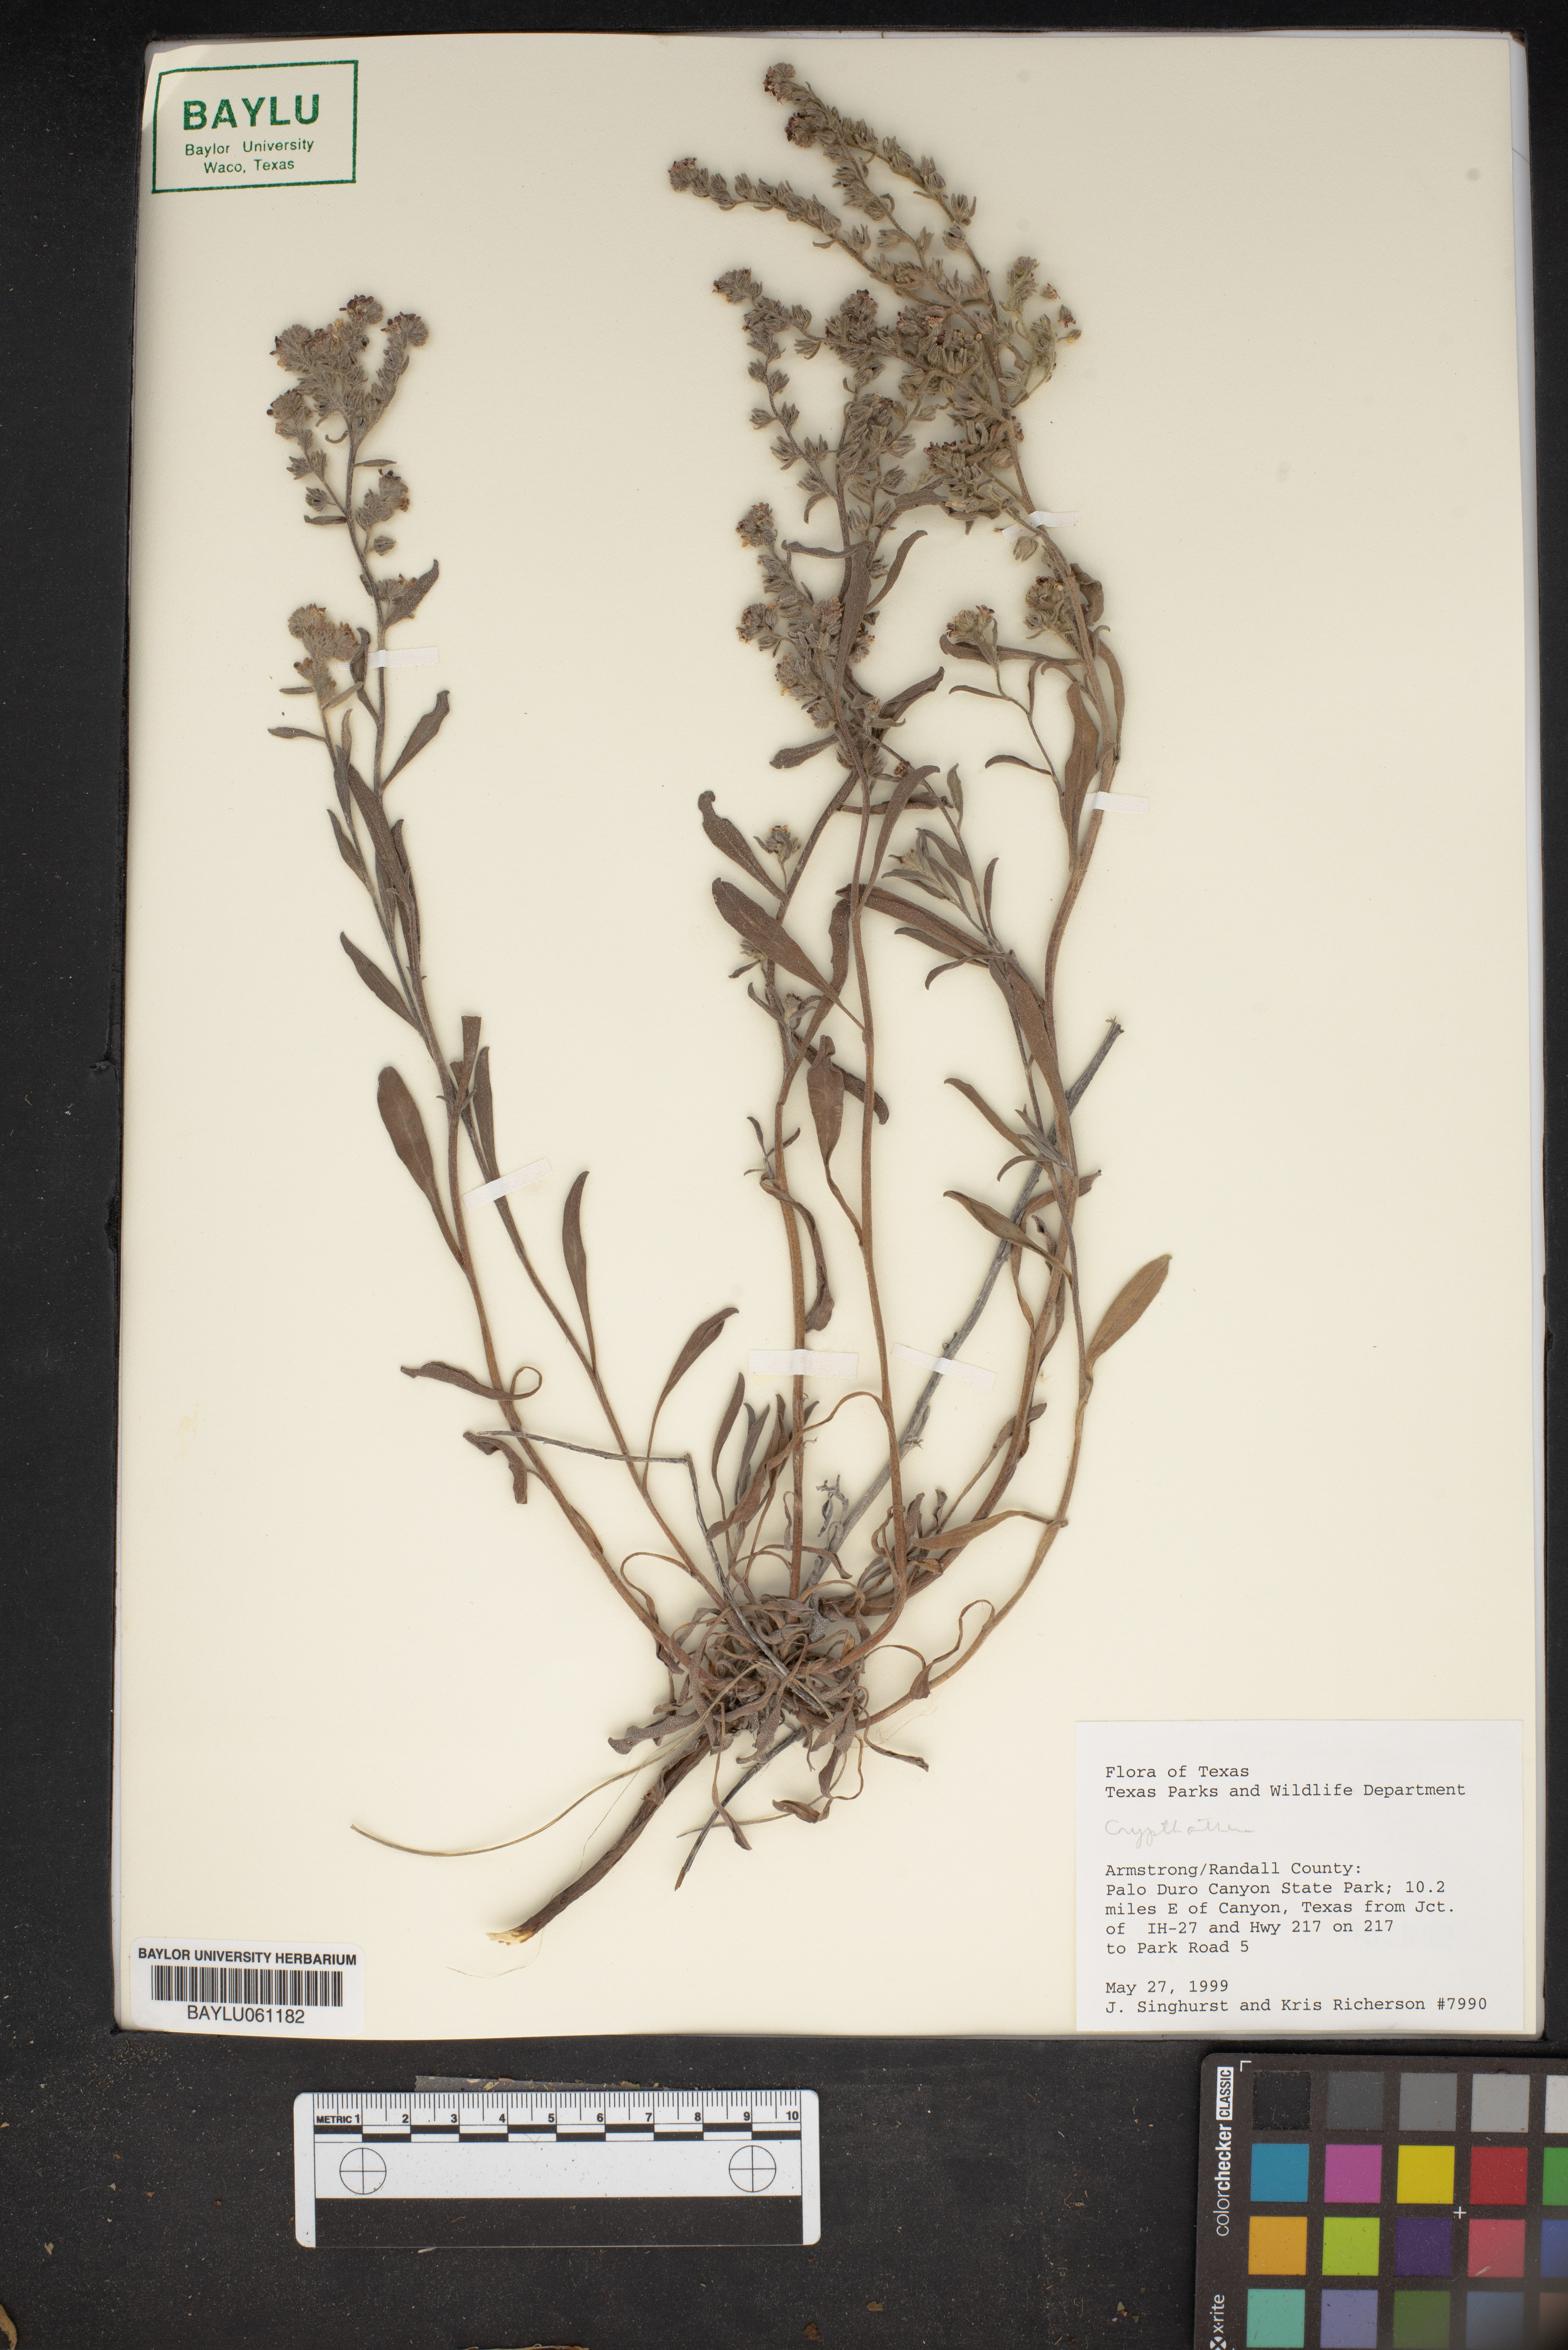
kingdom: Plantae
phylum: Tracheophyta
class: Magnoliopsida
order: Boraginales
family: Boraginaceae
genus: Cryptantha
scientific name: Cryptantha
